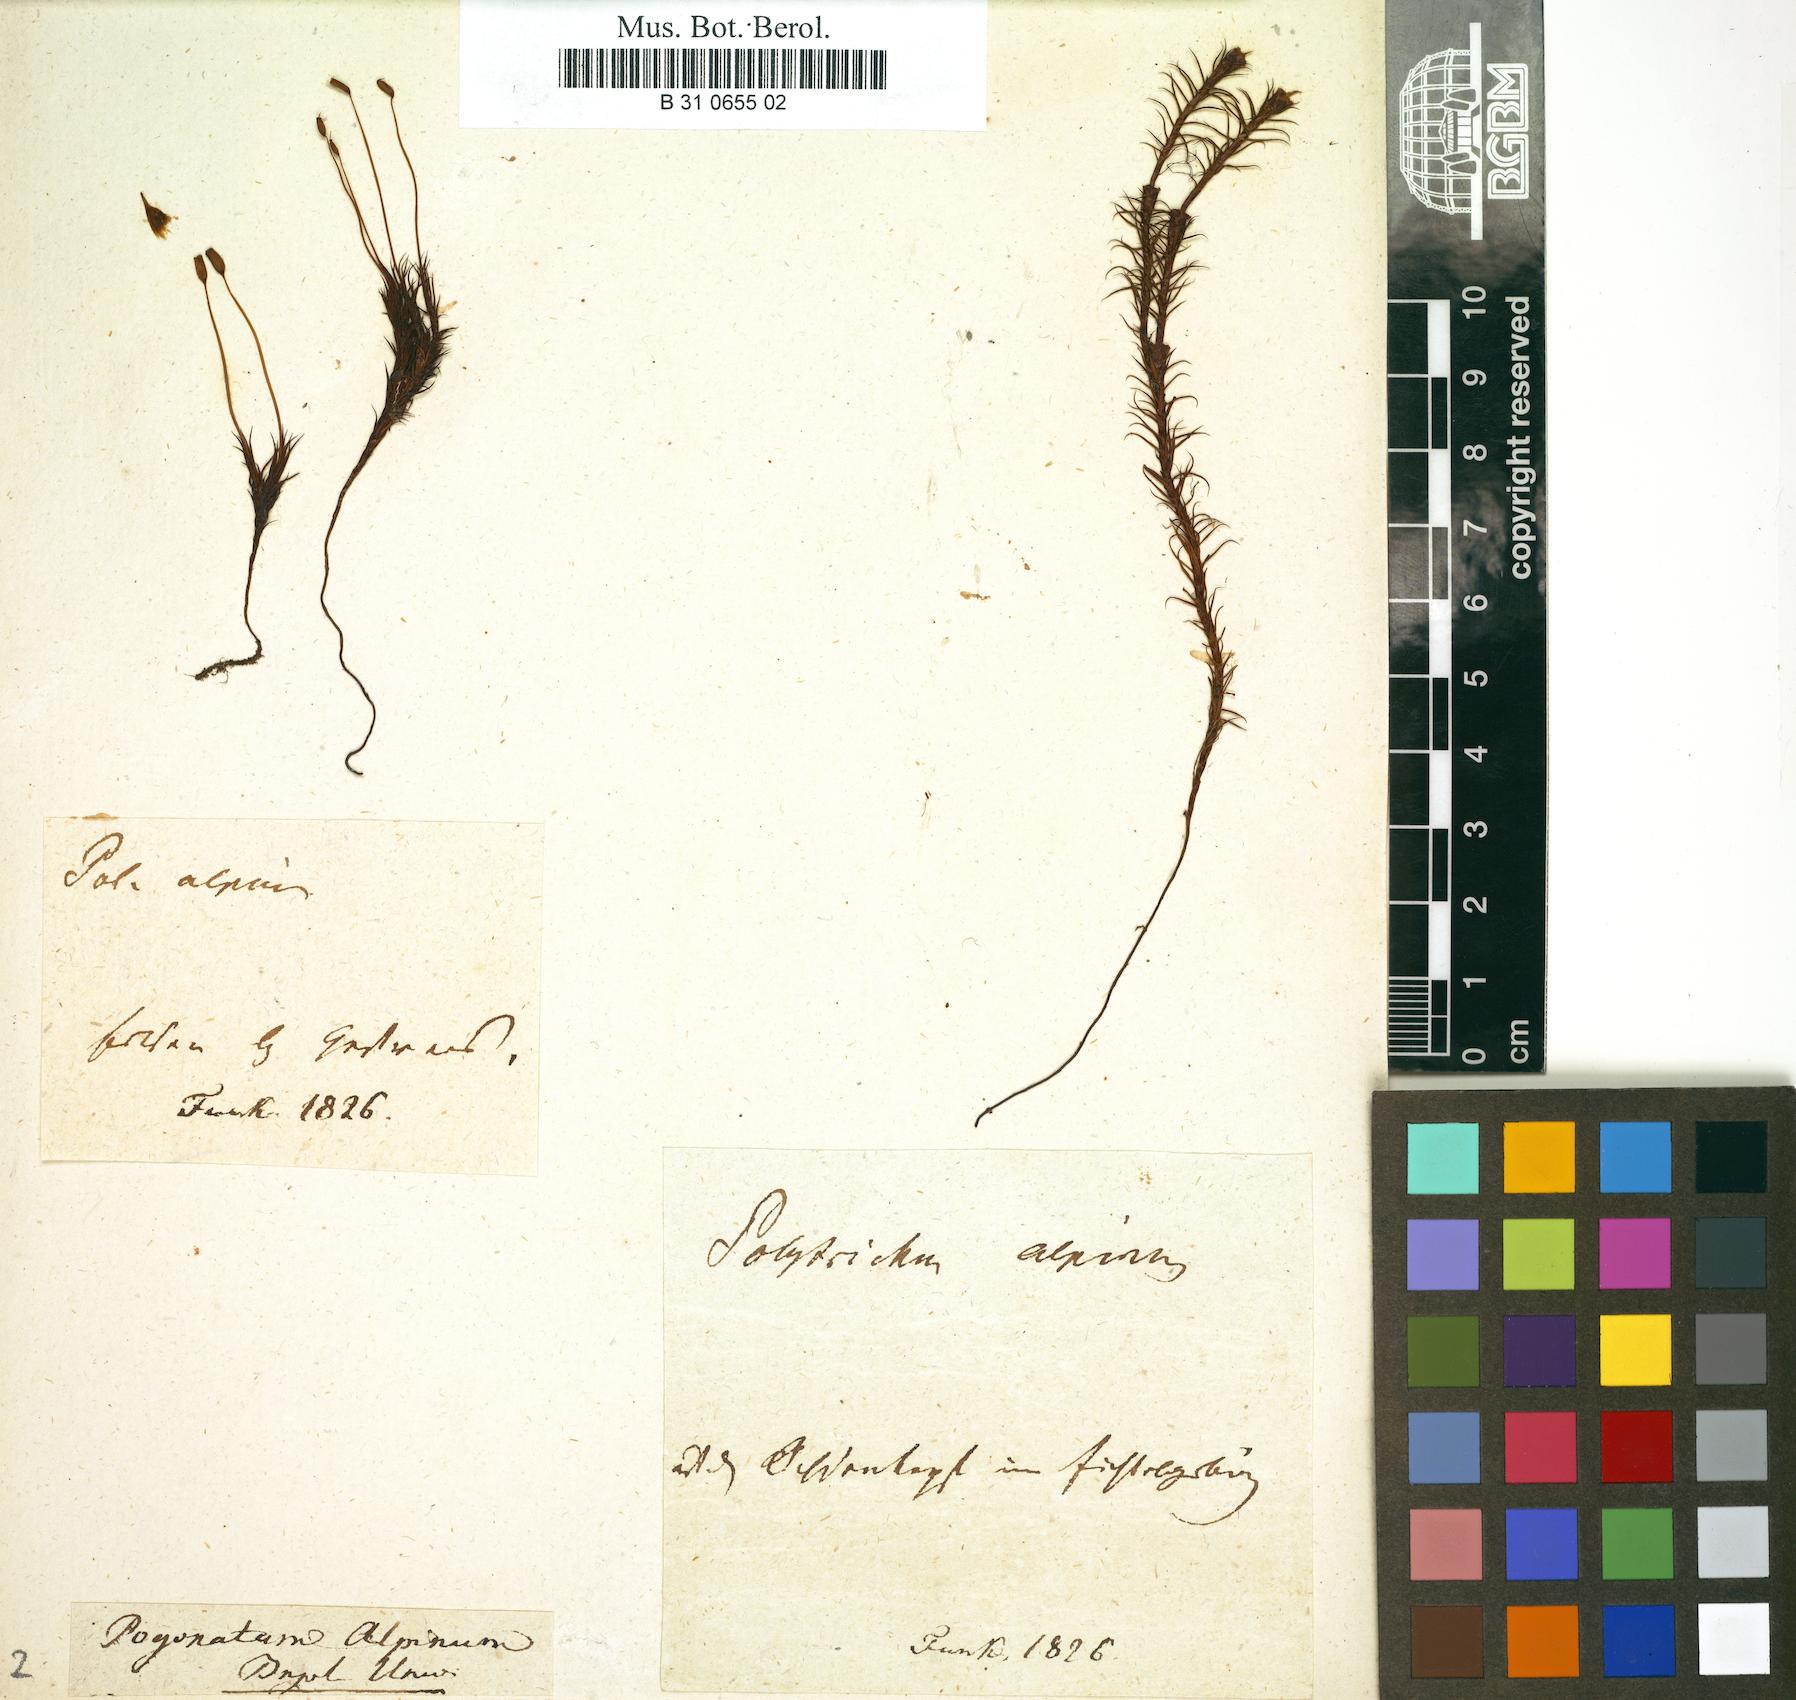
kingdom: Plantae
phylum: Bryophyta
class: Polytrichopsida
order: Polytrichales
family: Polytrichaceae
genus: Polytrichastrum
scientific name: Polytrichastrum alpinum
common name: Alpine haircap
